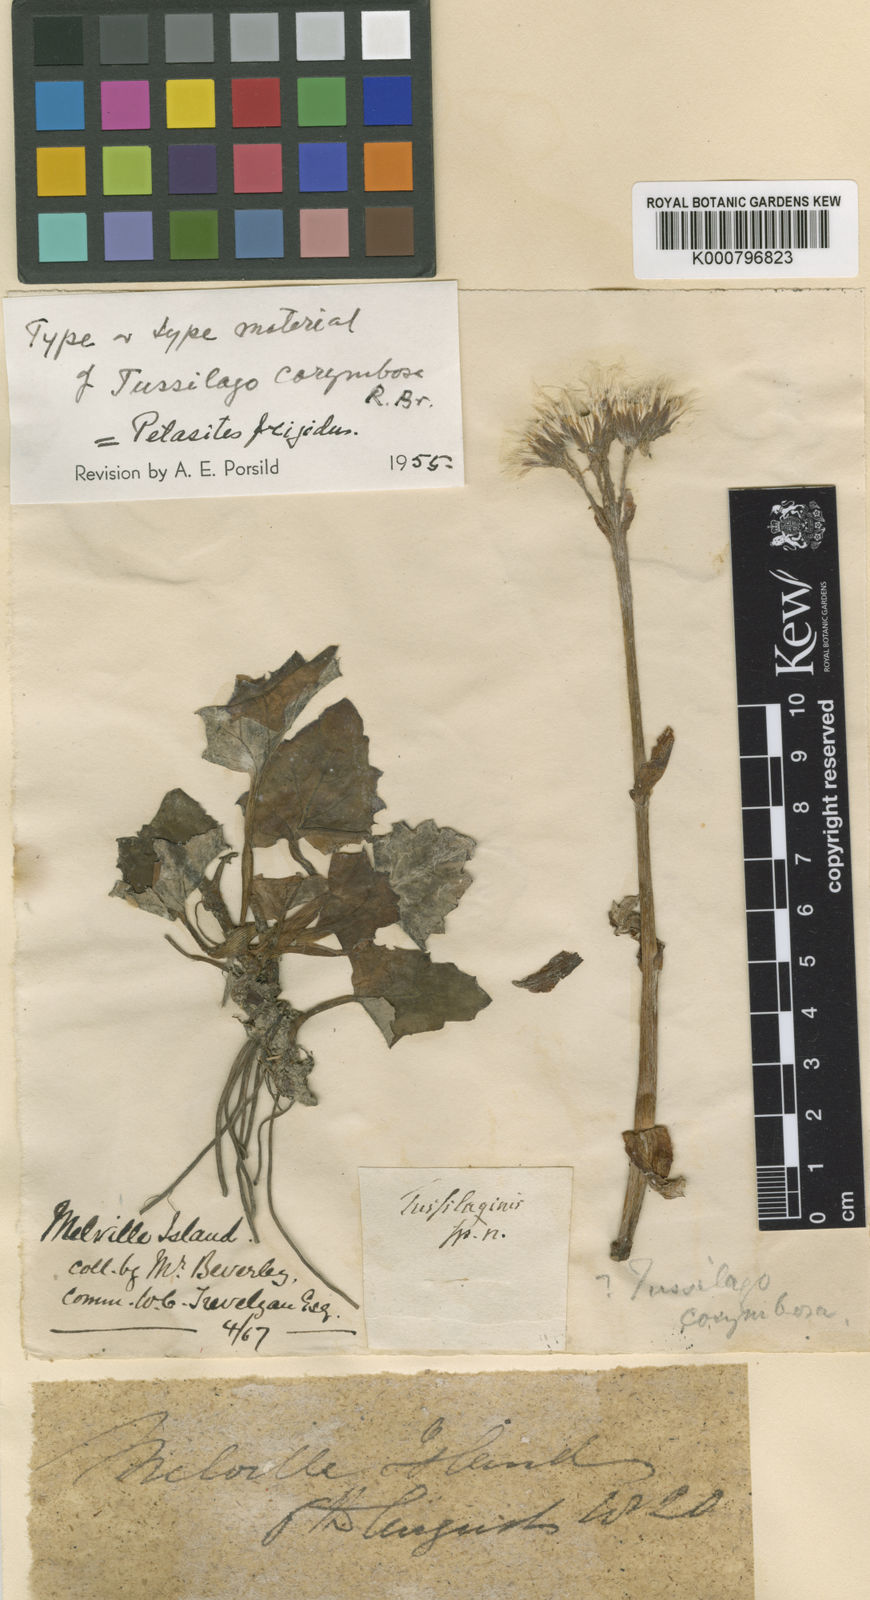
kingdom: Plantae
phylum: Tracheophyta
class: Magnoliopsida
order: Asterales
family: Asteraceae
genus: Petasites
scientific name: Petasites frigidus
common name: Arctic butterbur
